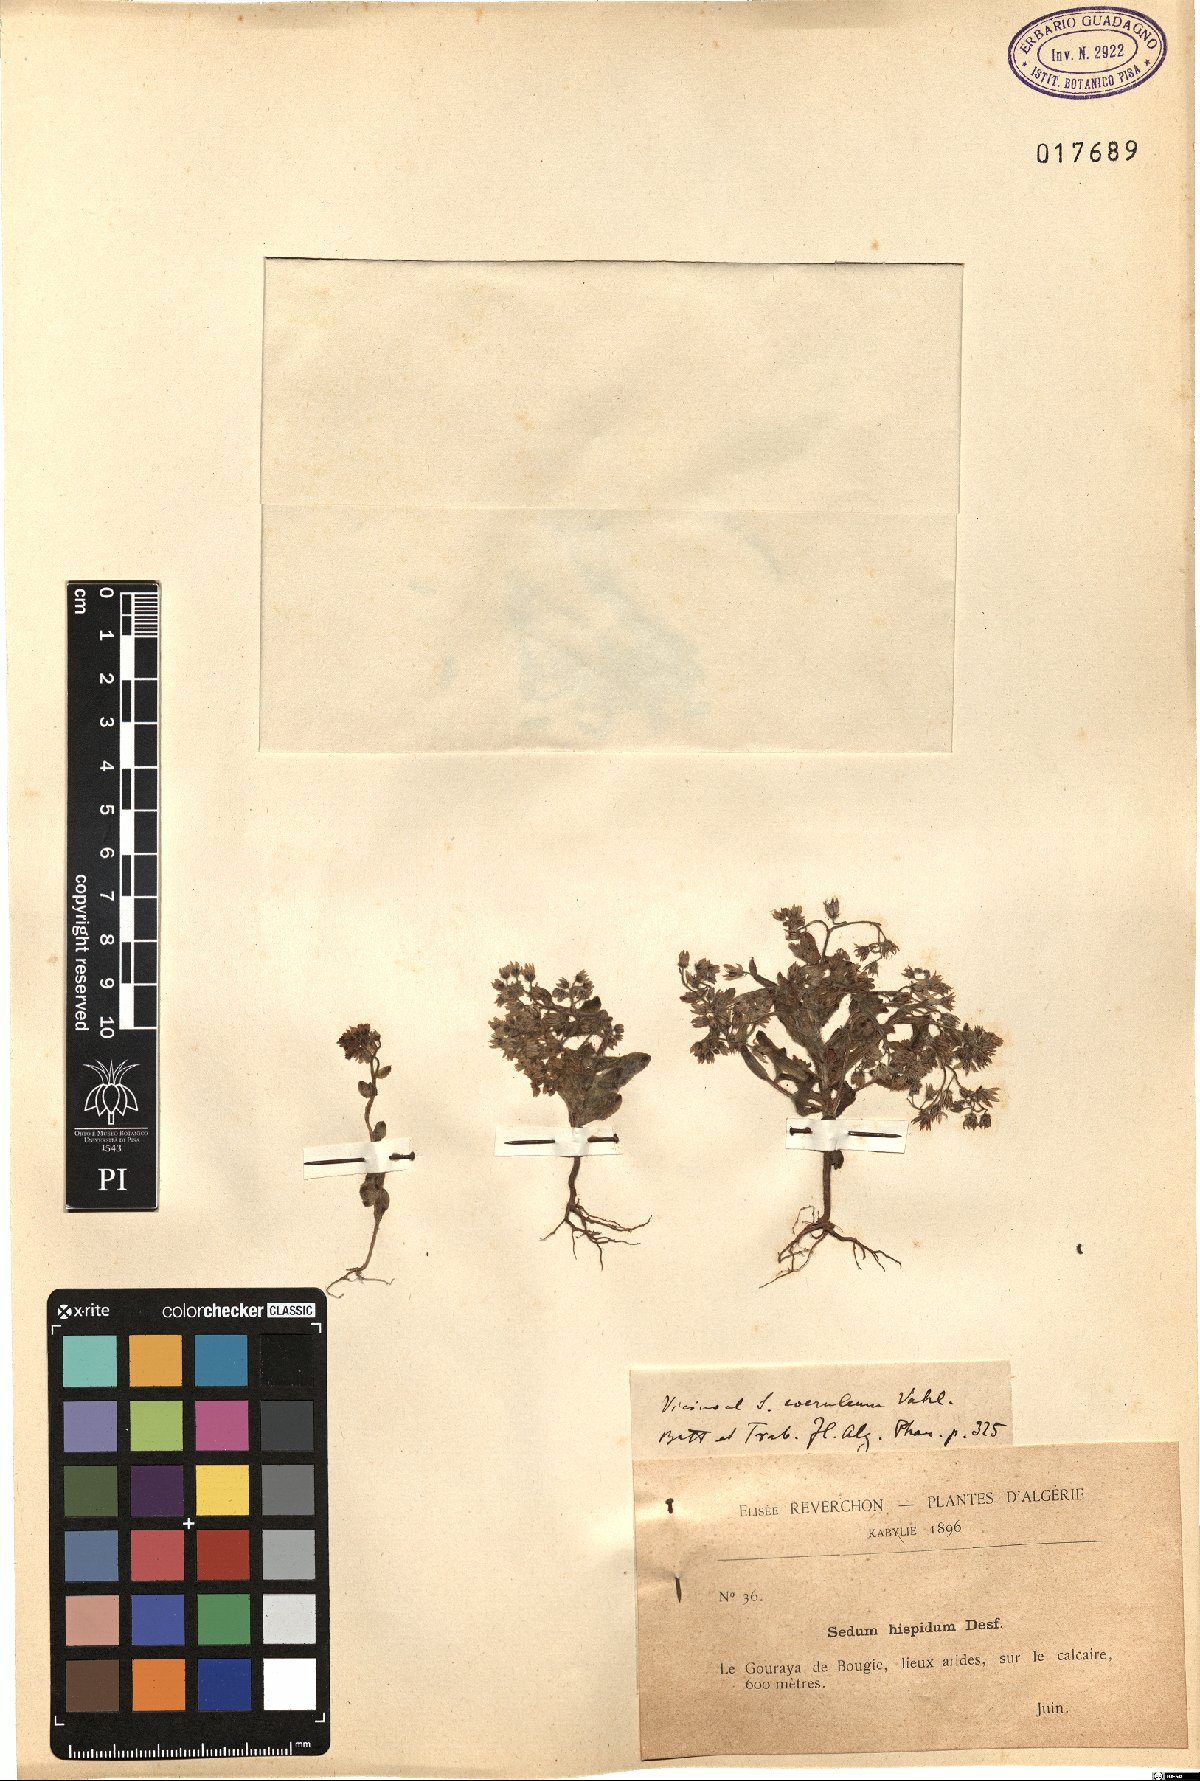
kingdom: Plantae
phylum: Tracheophyta
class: Magnoliopsida
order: Saxifragales
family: Crassulaceae
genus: Sedum
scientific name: Sedum pubescens
